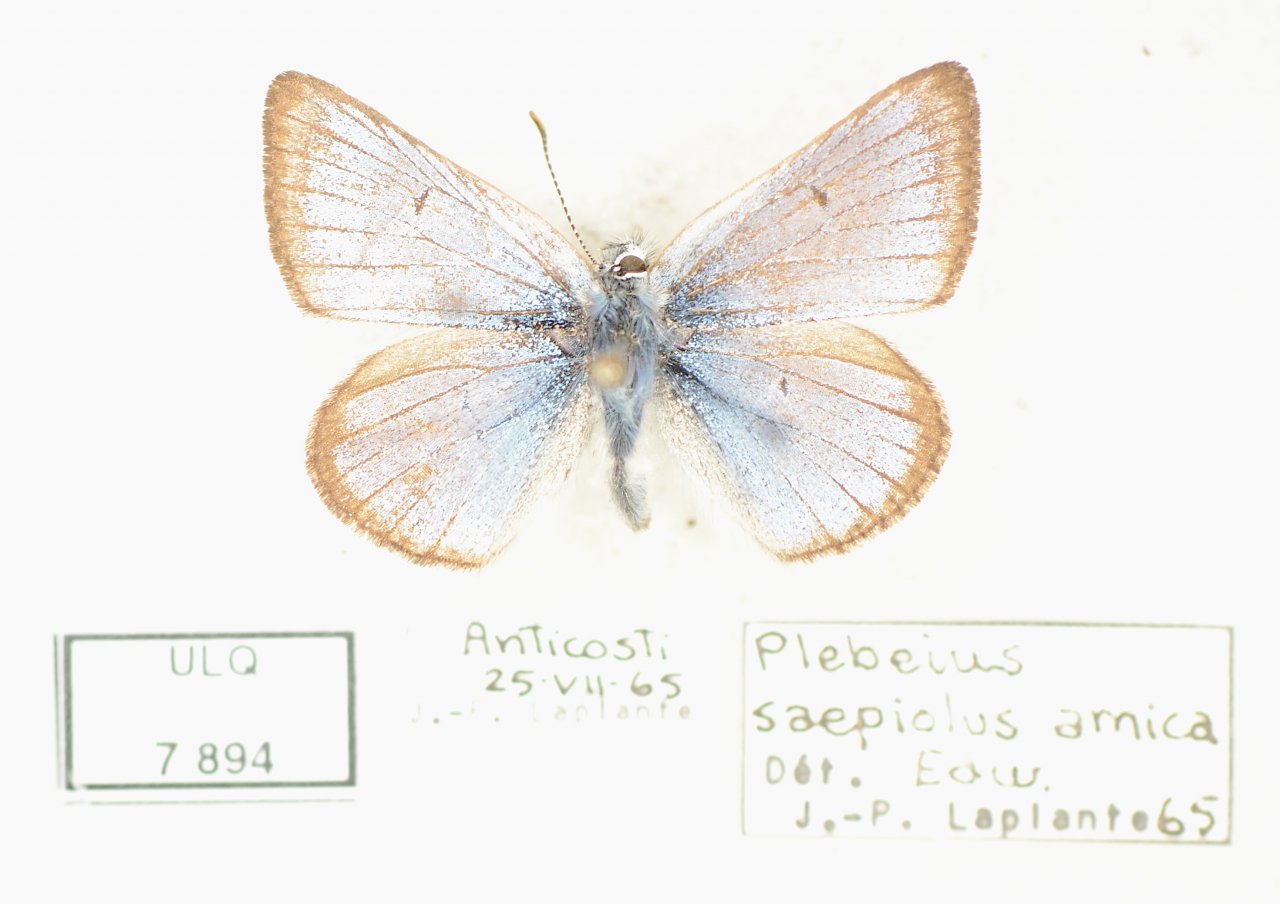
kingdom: Animalia
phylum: Arthropoda
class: Insecta
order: Lepidoptera
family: Lycaenidae
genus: Plebejus
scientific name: Plebejus saepiolus
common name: Greenish Blue
